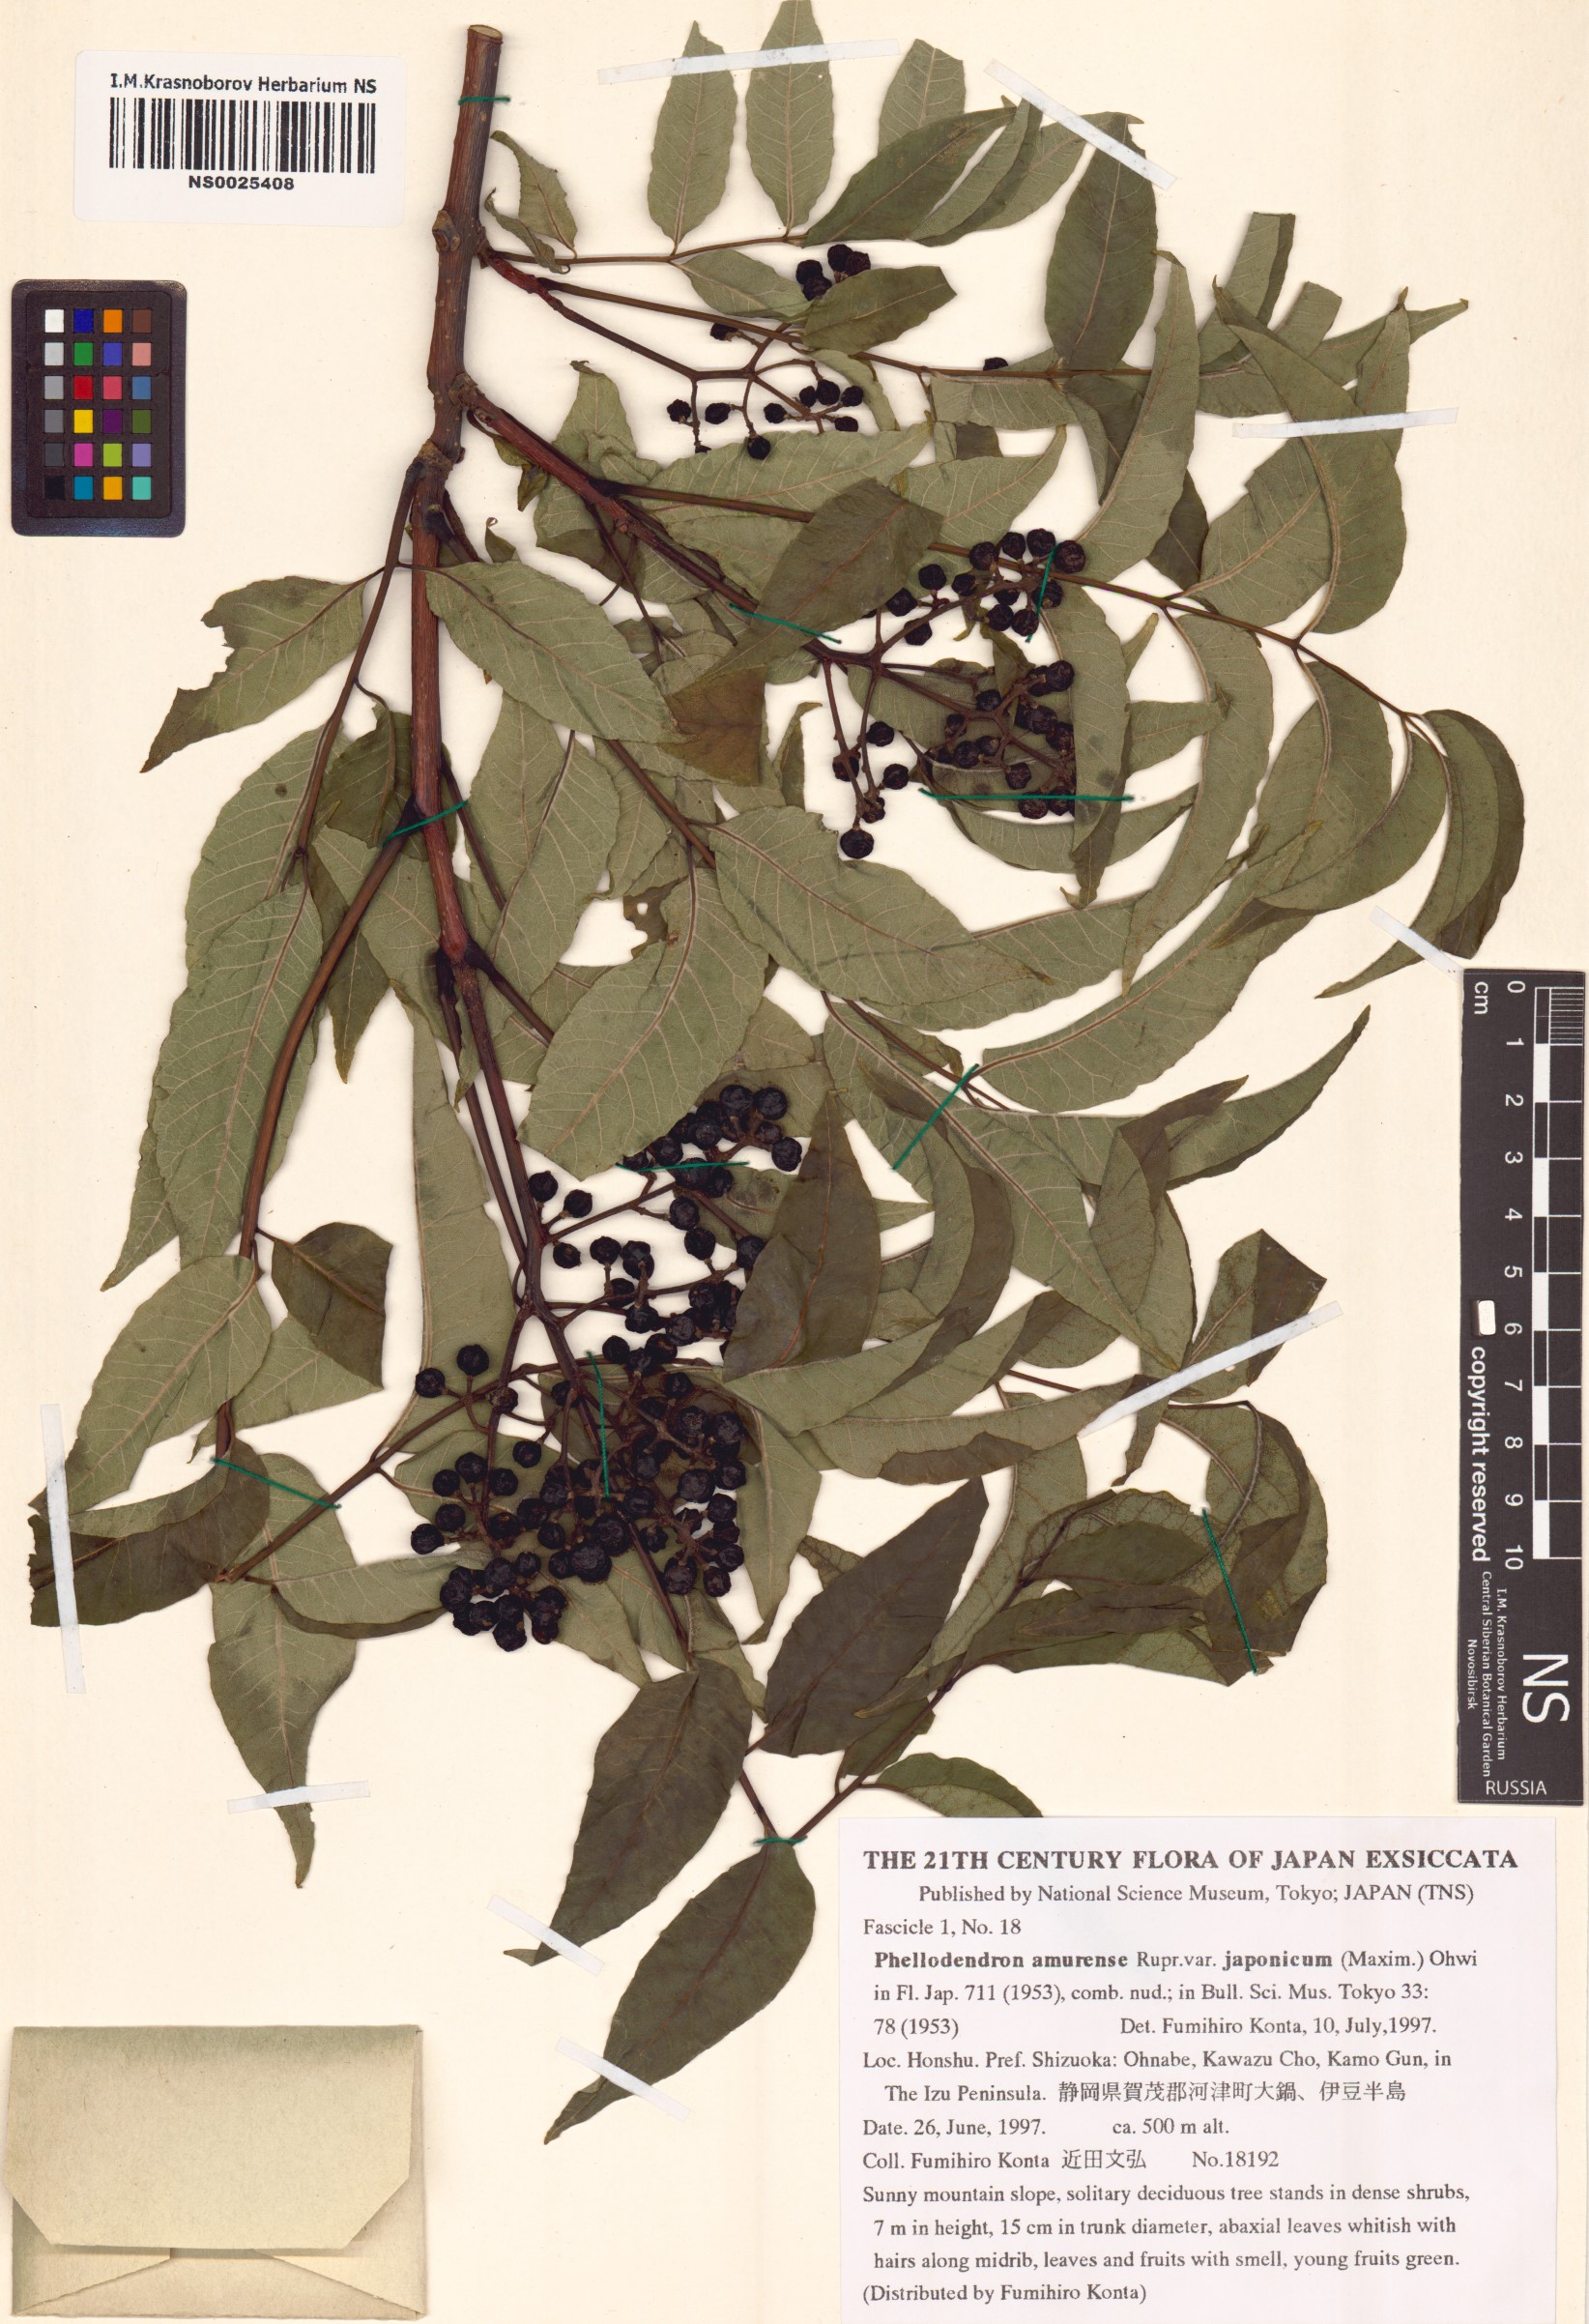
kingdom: Plantae
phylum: Tracheophyta
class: Magnoliopsida
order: Sapindales
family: Rutaceae
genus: Phellodendron
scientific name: Phellodendron amurense
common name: Amur corktree
